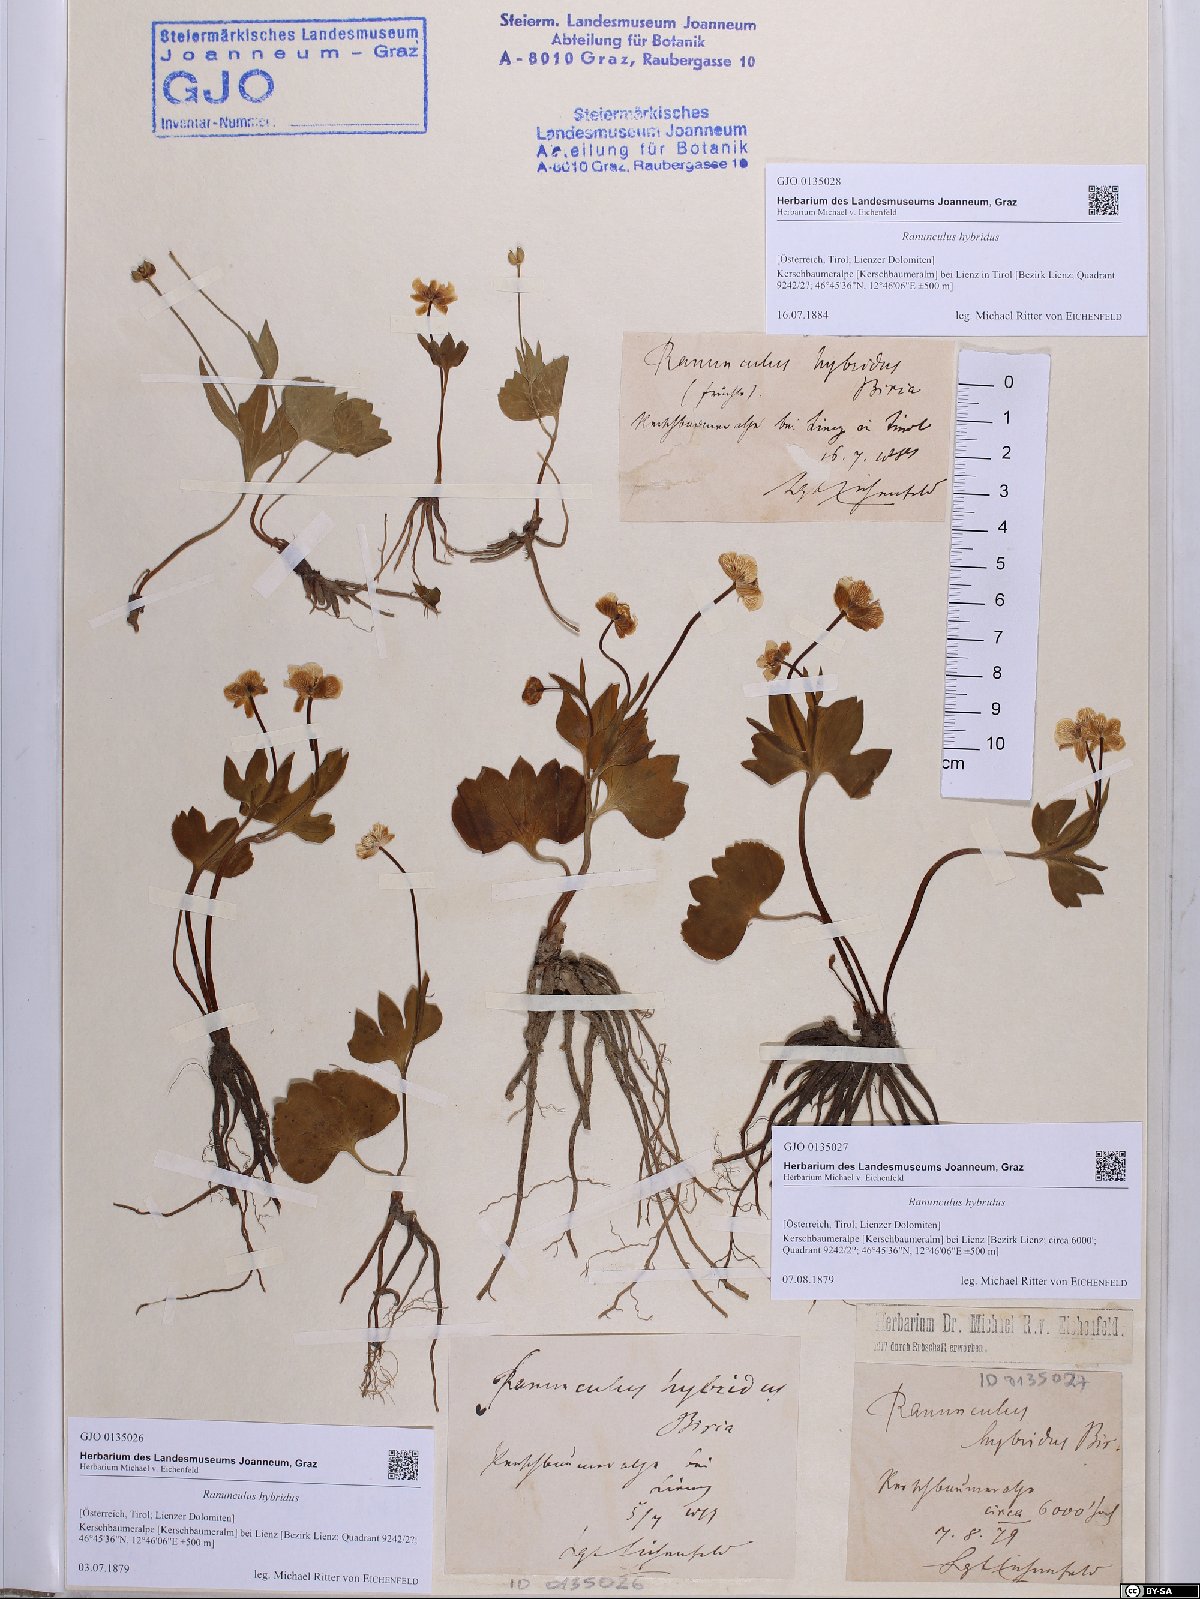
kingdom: Plantae
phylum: Tracheophyta
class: Magnoliopsida
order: Ranunculales
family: Ranunculaceae
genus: Ranunculus
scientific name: Ranunculus hybridus
